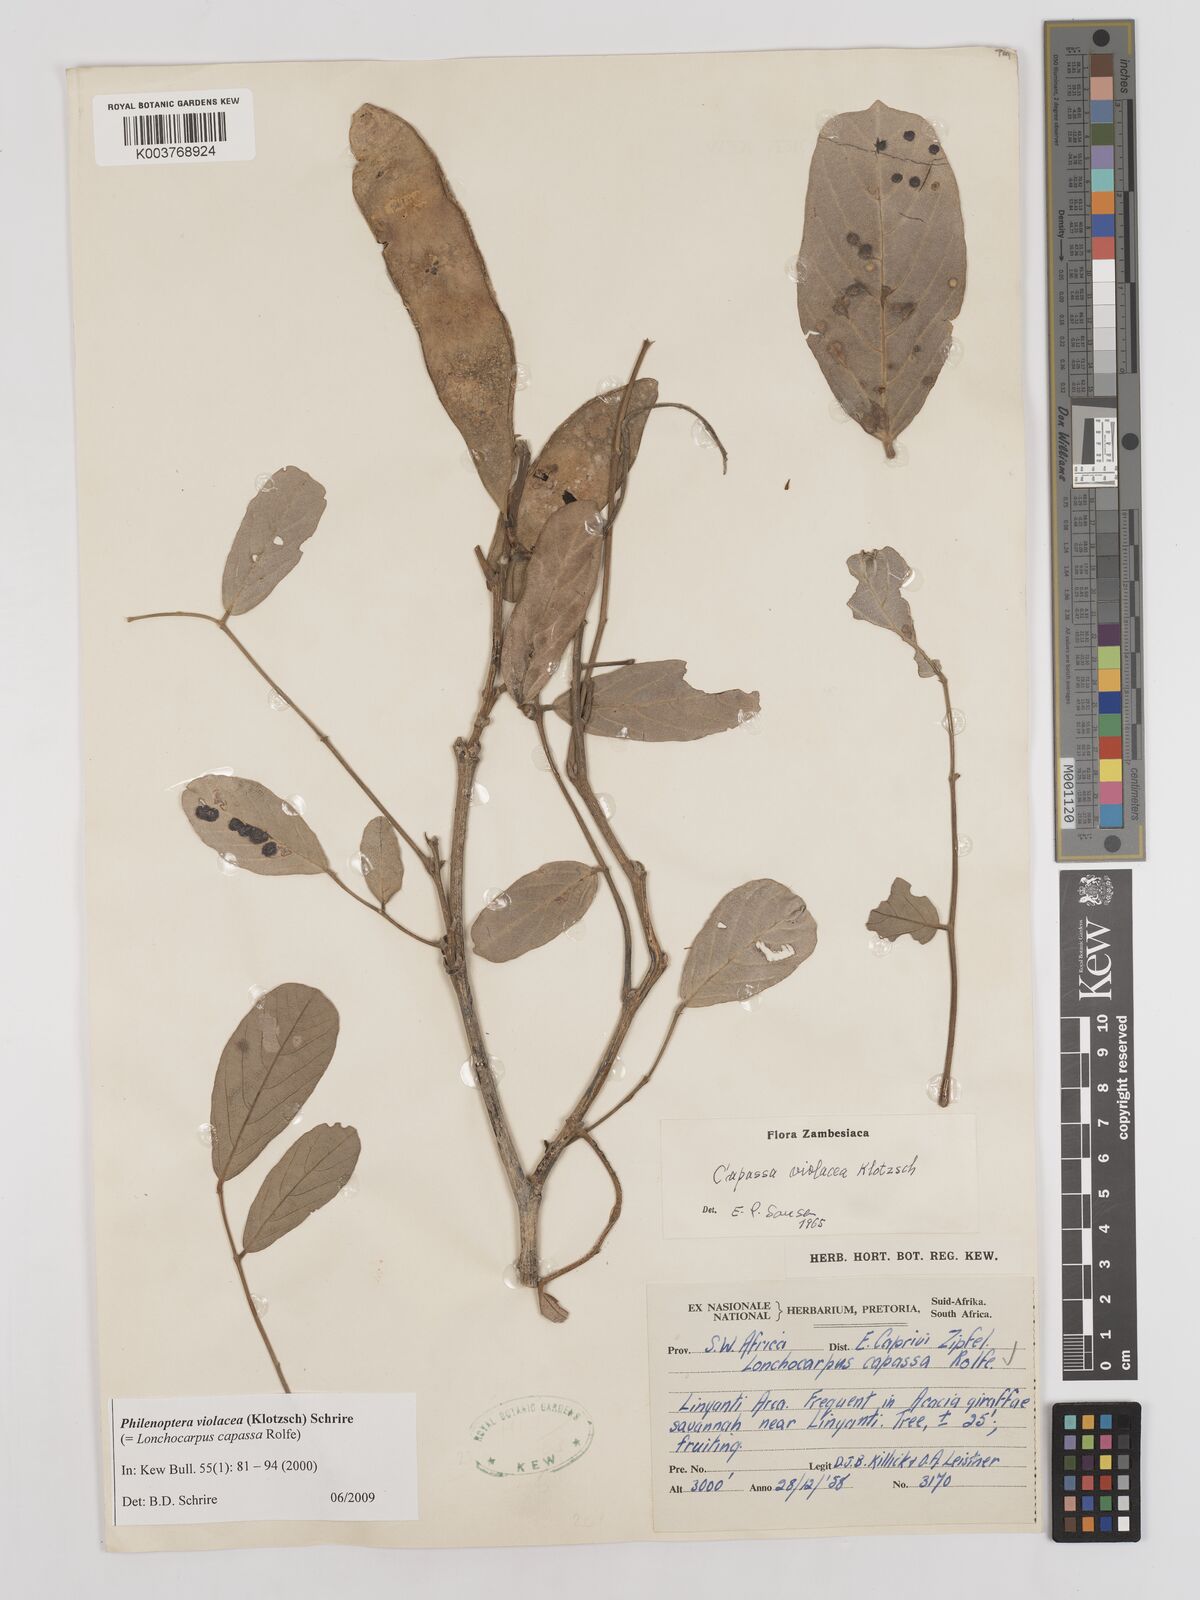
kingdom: Plantae
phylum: Tracheophyta
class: Magnoliopsida
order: Fabales
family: Fabaceae
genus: Philenoptera
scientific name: Philenoptera
